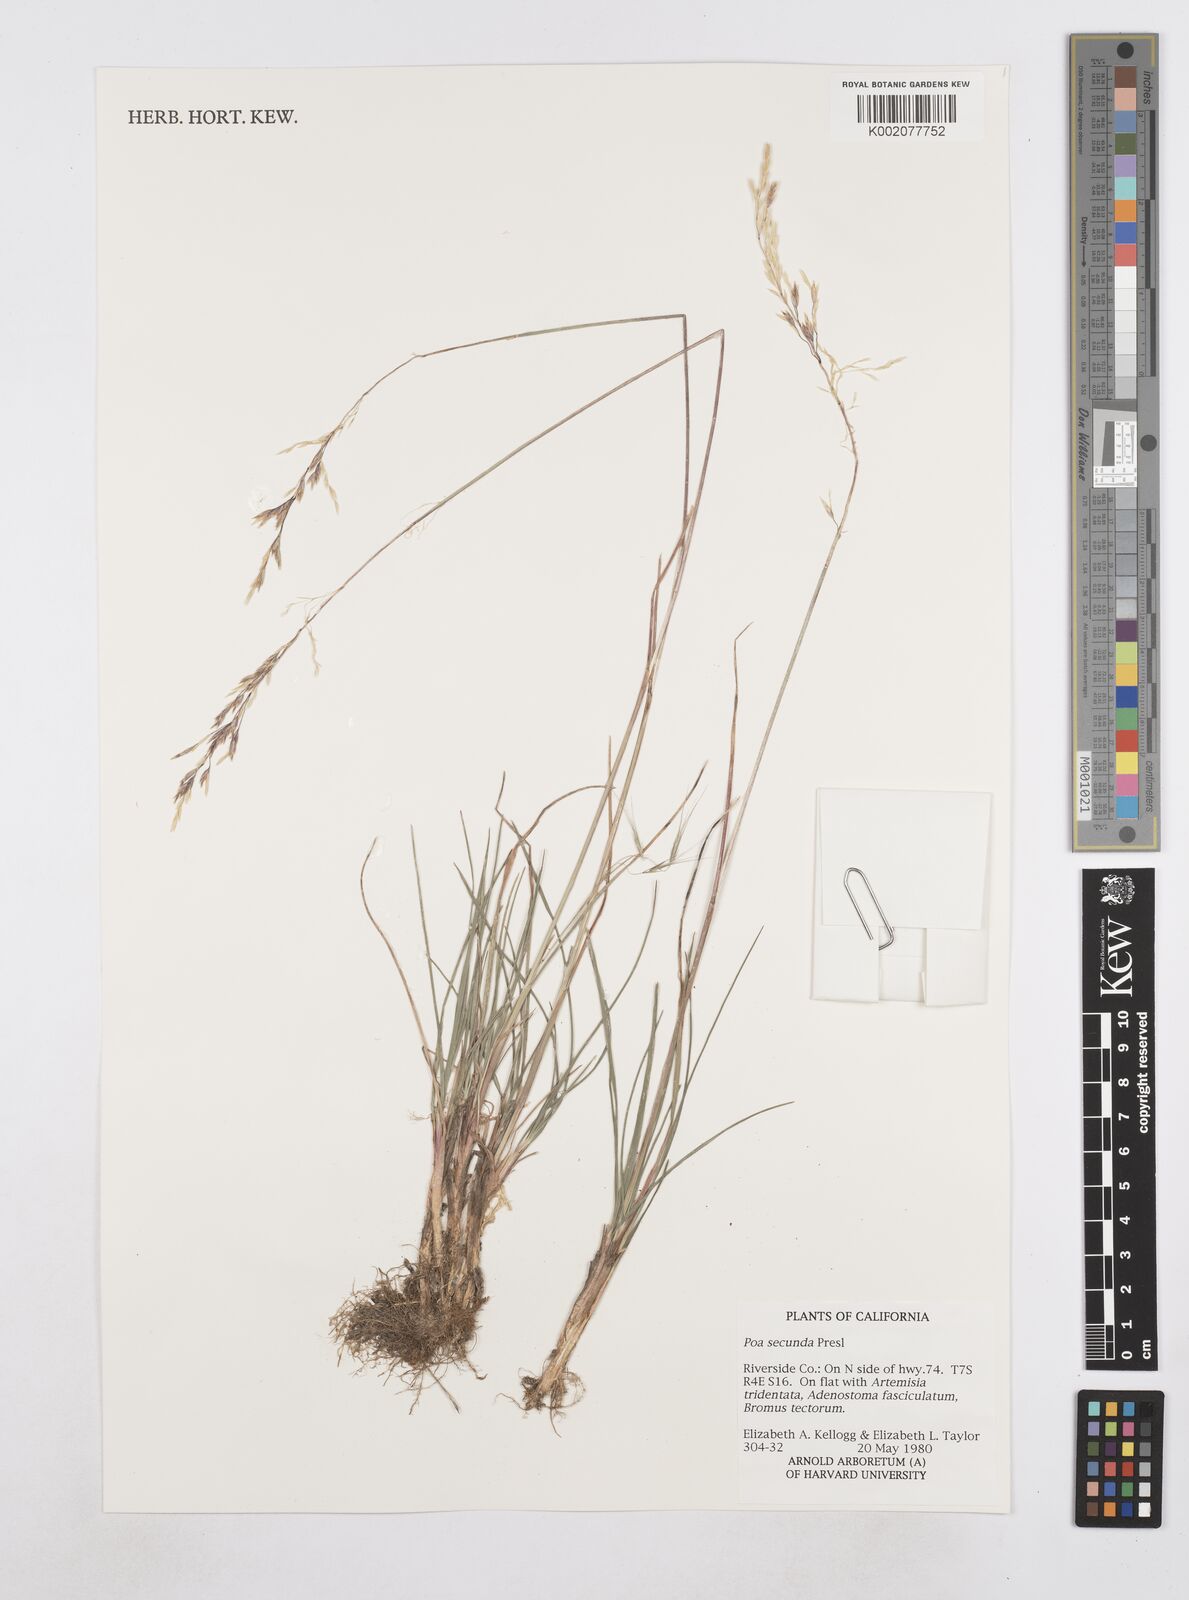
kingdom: Plantae
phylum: Tracheophyta
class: Liliopsida
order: Poales
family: Poaceae
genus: Poa
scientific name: Poa secunda
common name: Sandberg bluegrass
